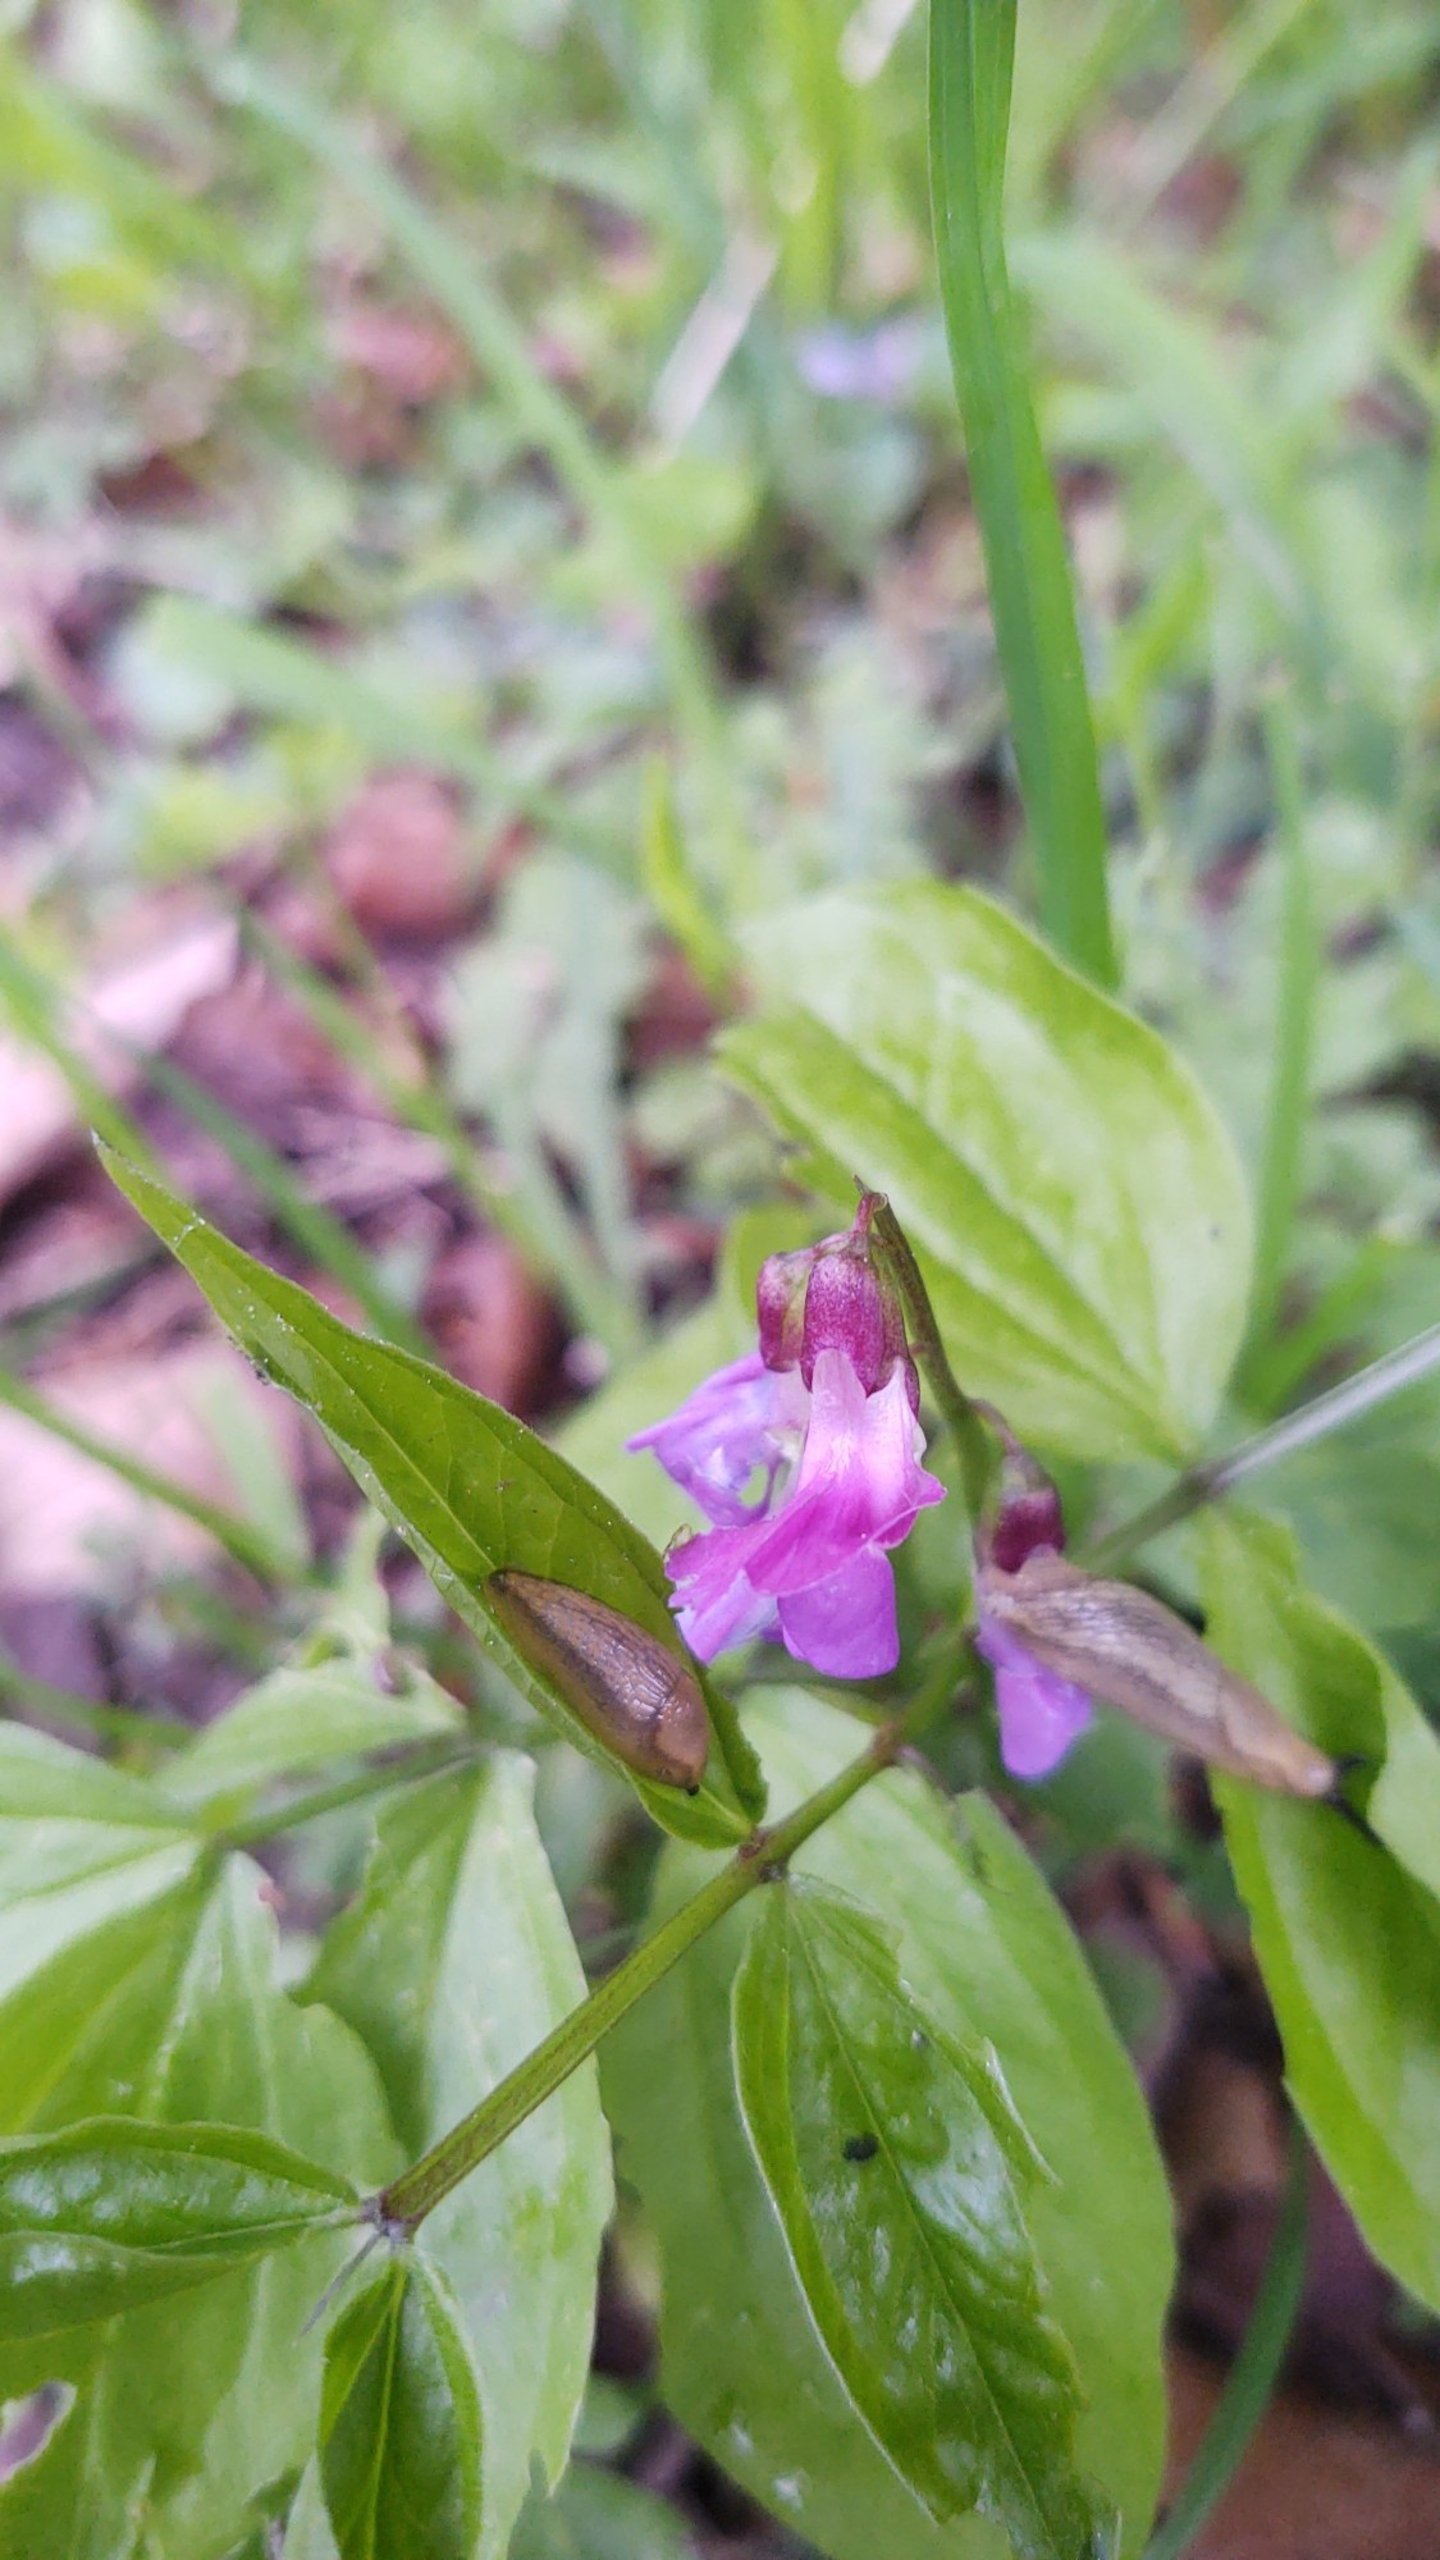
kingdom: Plantae
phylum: Tracheophyta
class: Magnoliopsida
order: Fabales
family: Fabaceae
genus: Lathyrus
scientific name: Lathyrus vernus
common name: Vår-fladbælg
